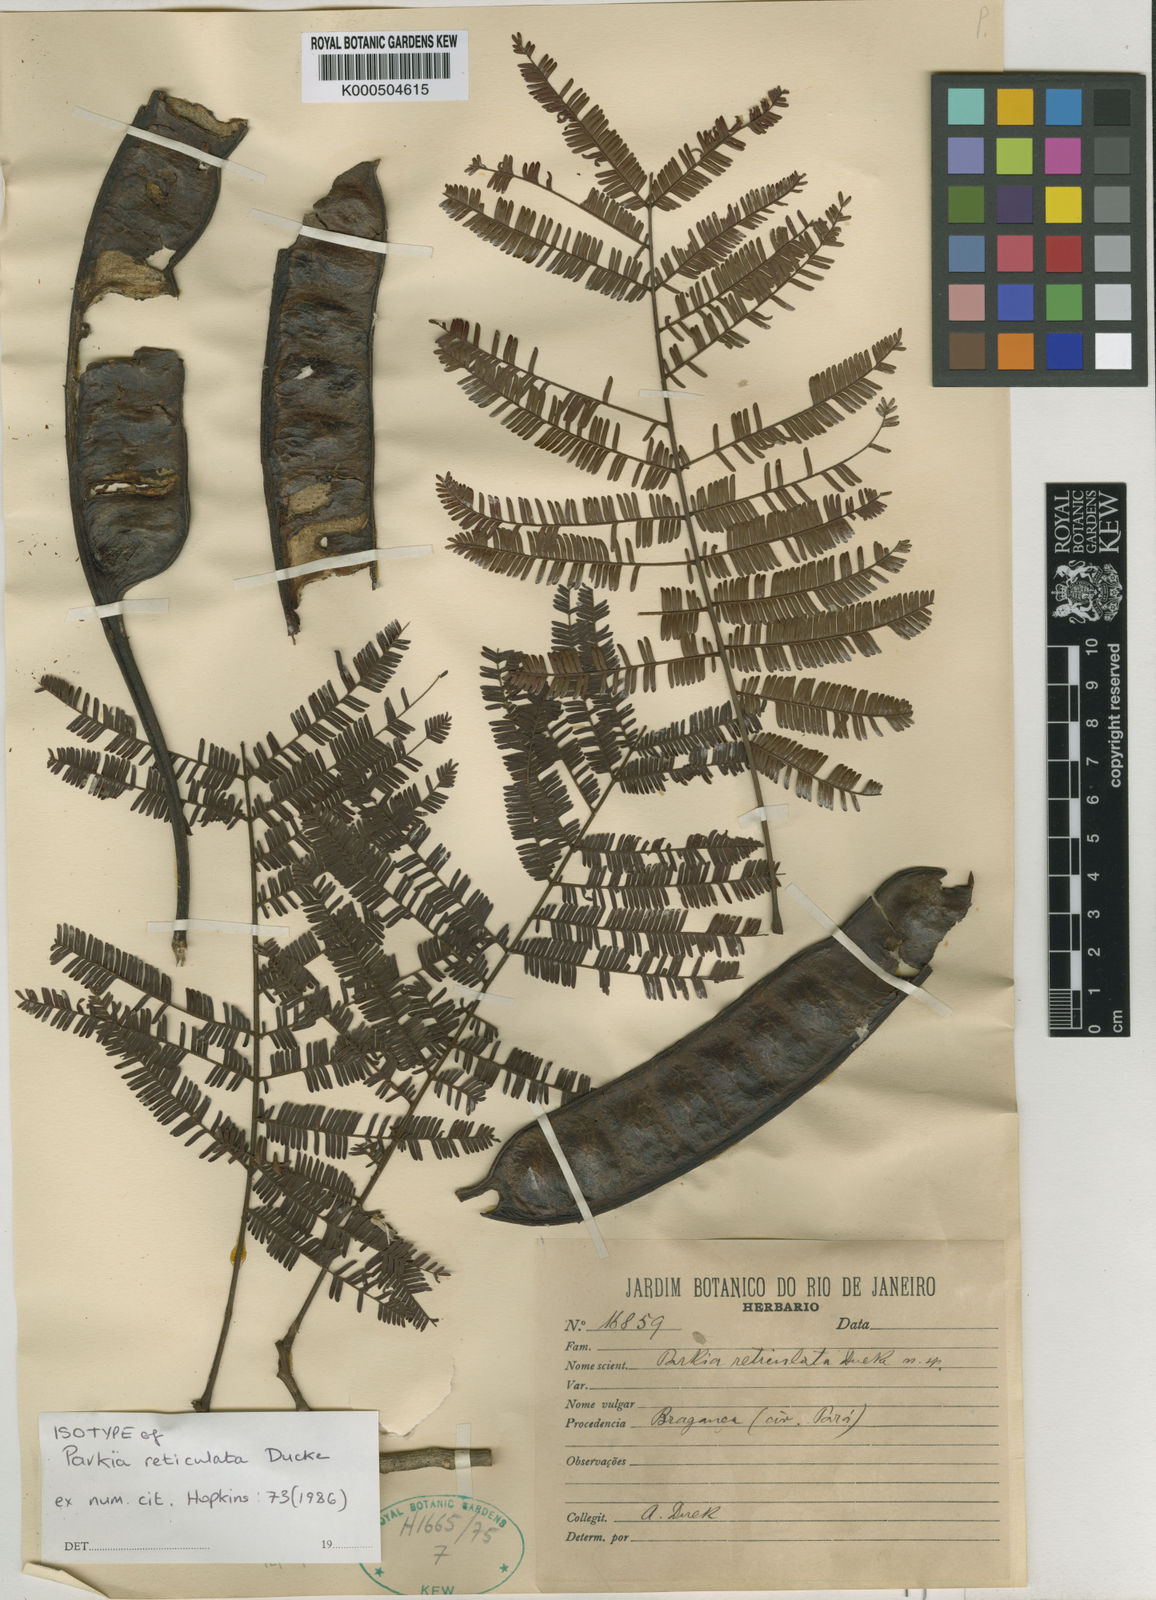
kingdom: Plantae
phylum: Tracheophyta
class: Magnoliopsida
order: Fabales
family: Fabaceae
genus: Parkia
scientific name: Parkia reticulata
